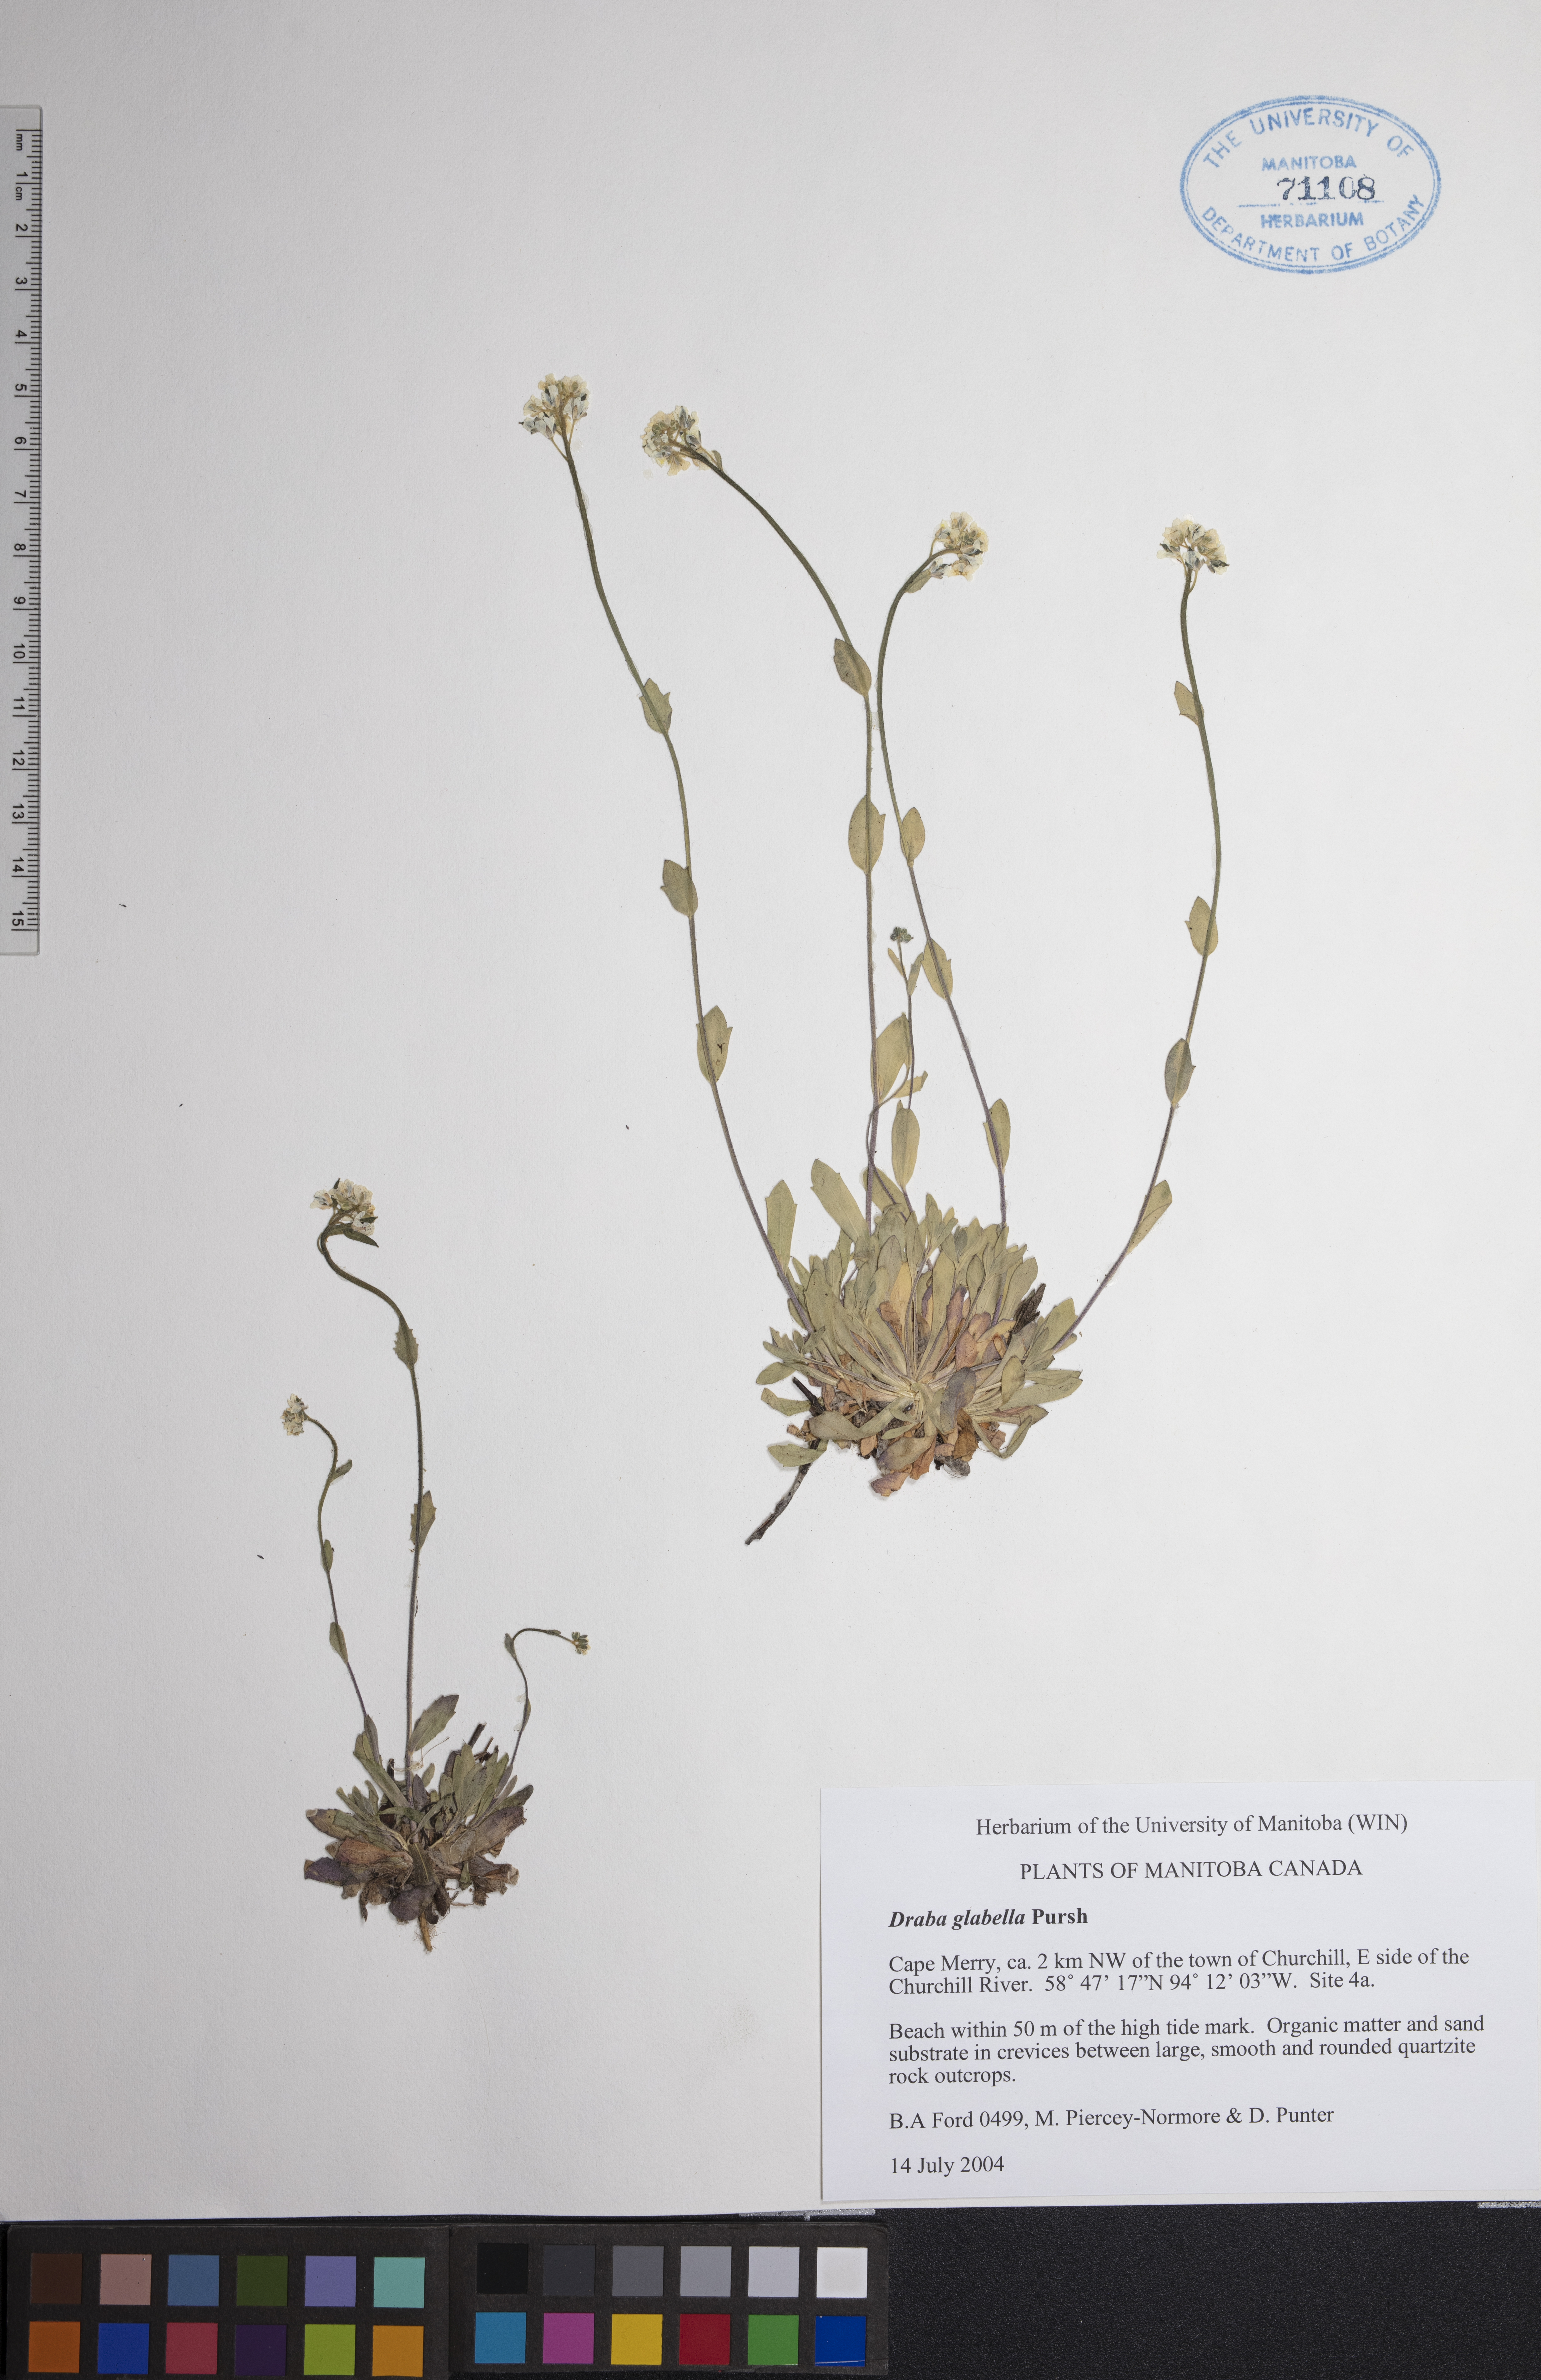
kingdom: Plantae
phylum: Tracheophyta
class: Magnoliopsida
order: Brassicales
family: Brassicaceae
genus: Draba
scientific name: Draba glabella
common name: Glaucous draba
